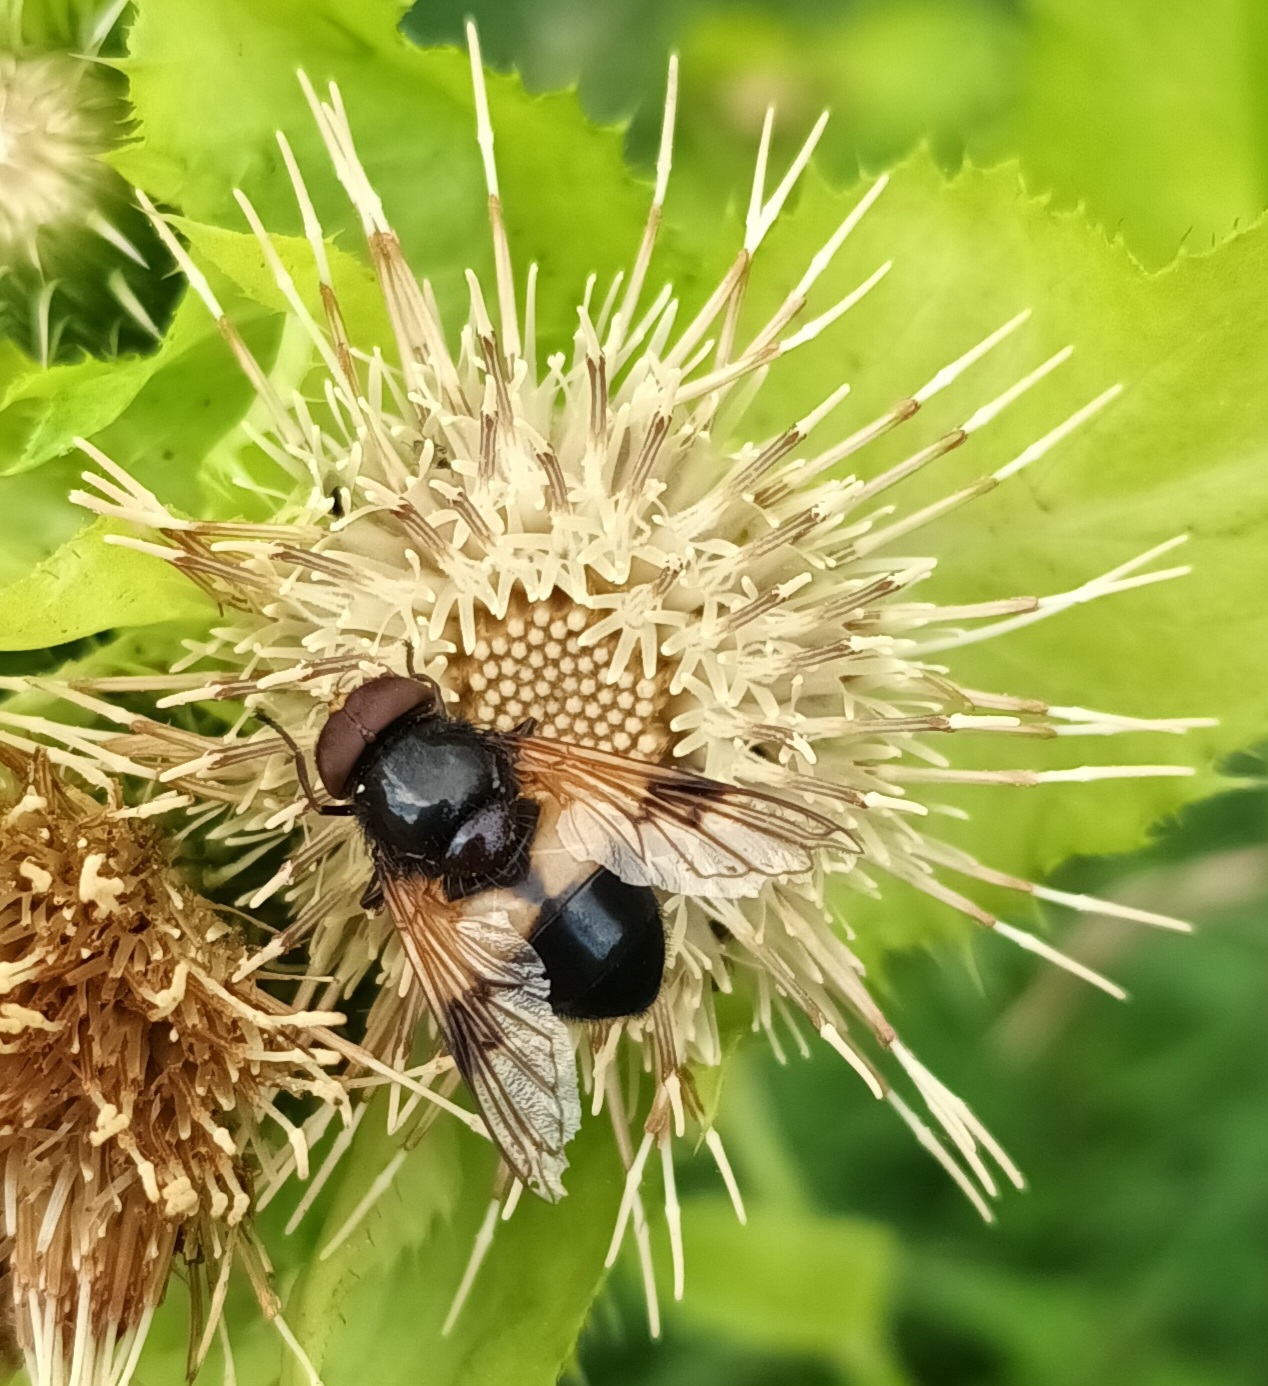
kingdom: Animalia
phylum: Arthropoda
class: Insecta
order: Diptera
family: Syrphidae
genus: Volucella
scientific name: Volucella pellucens
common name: Hvidbåndet humlesvirreflue
